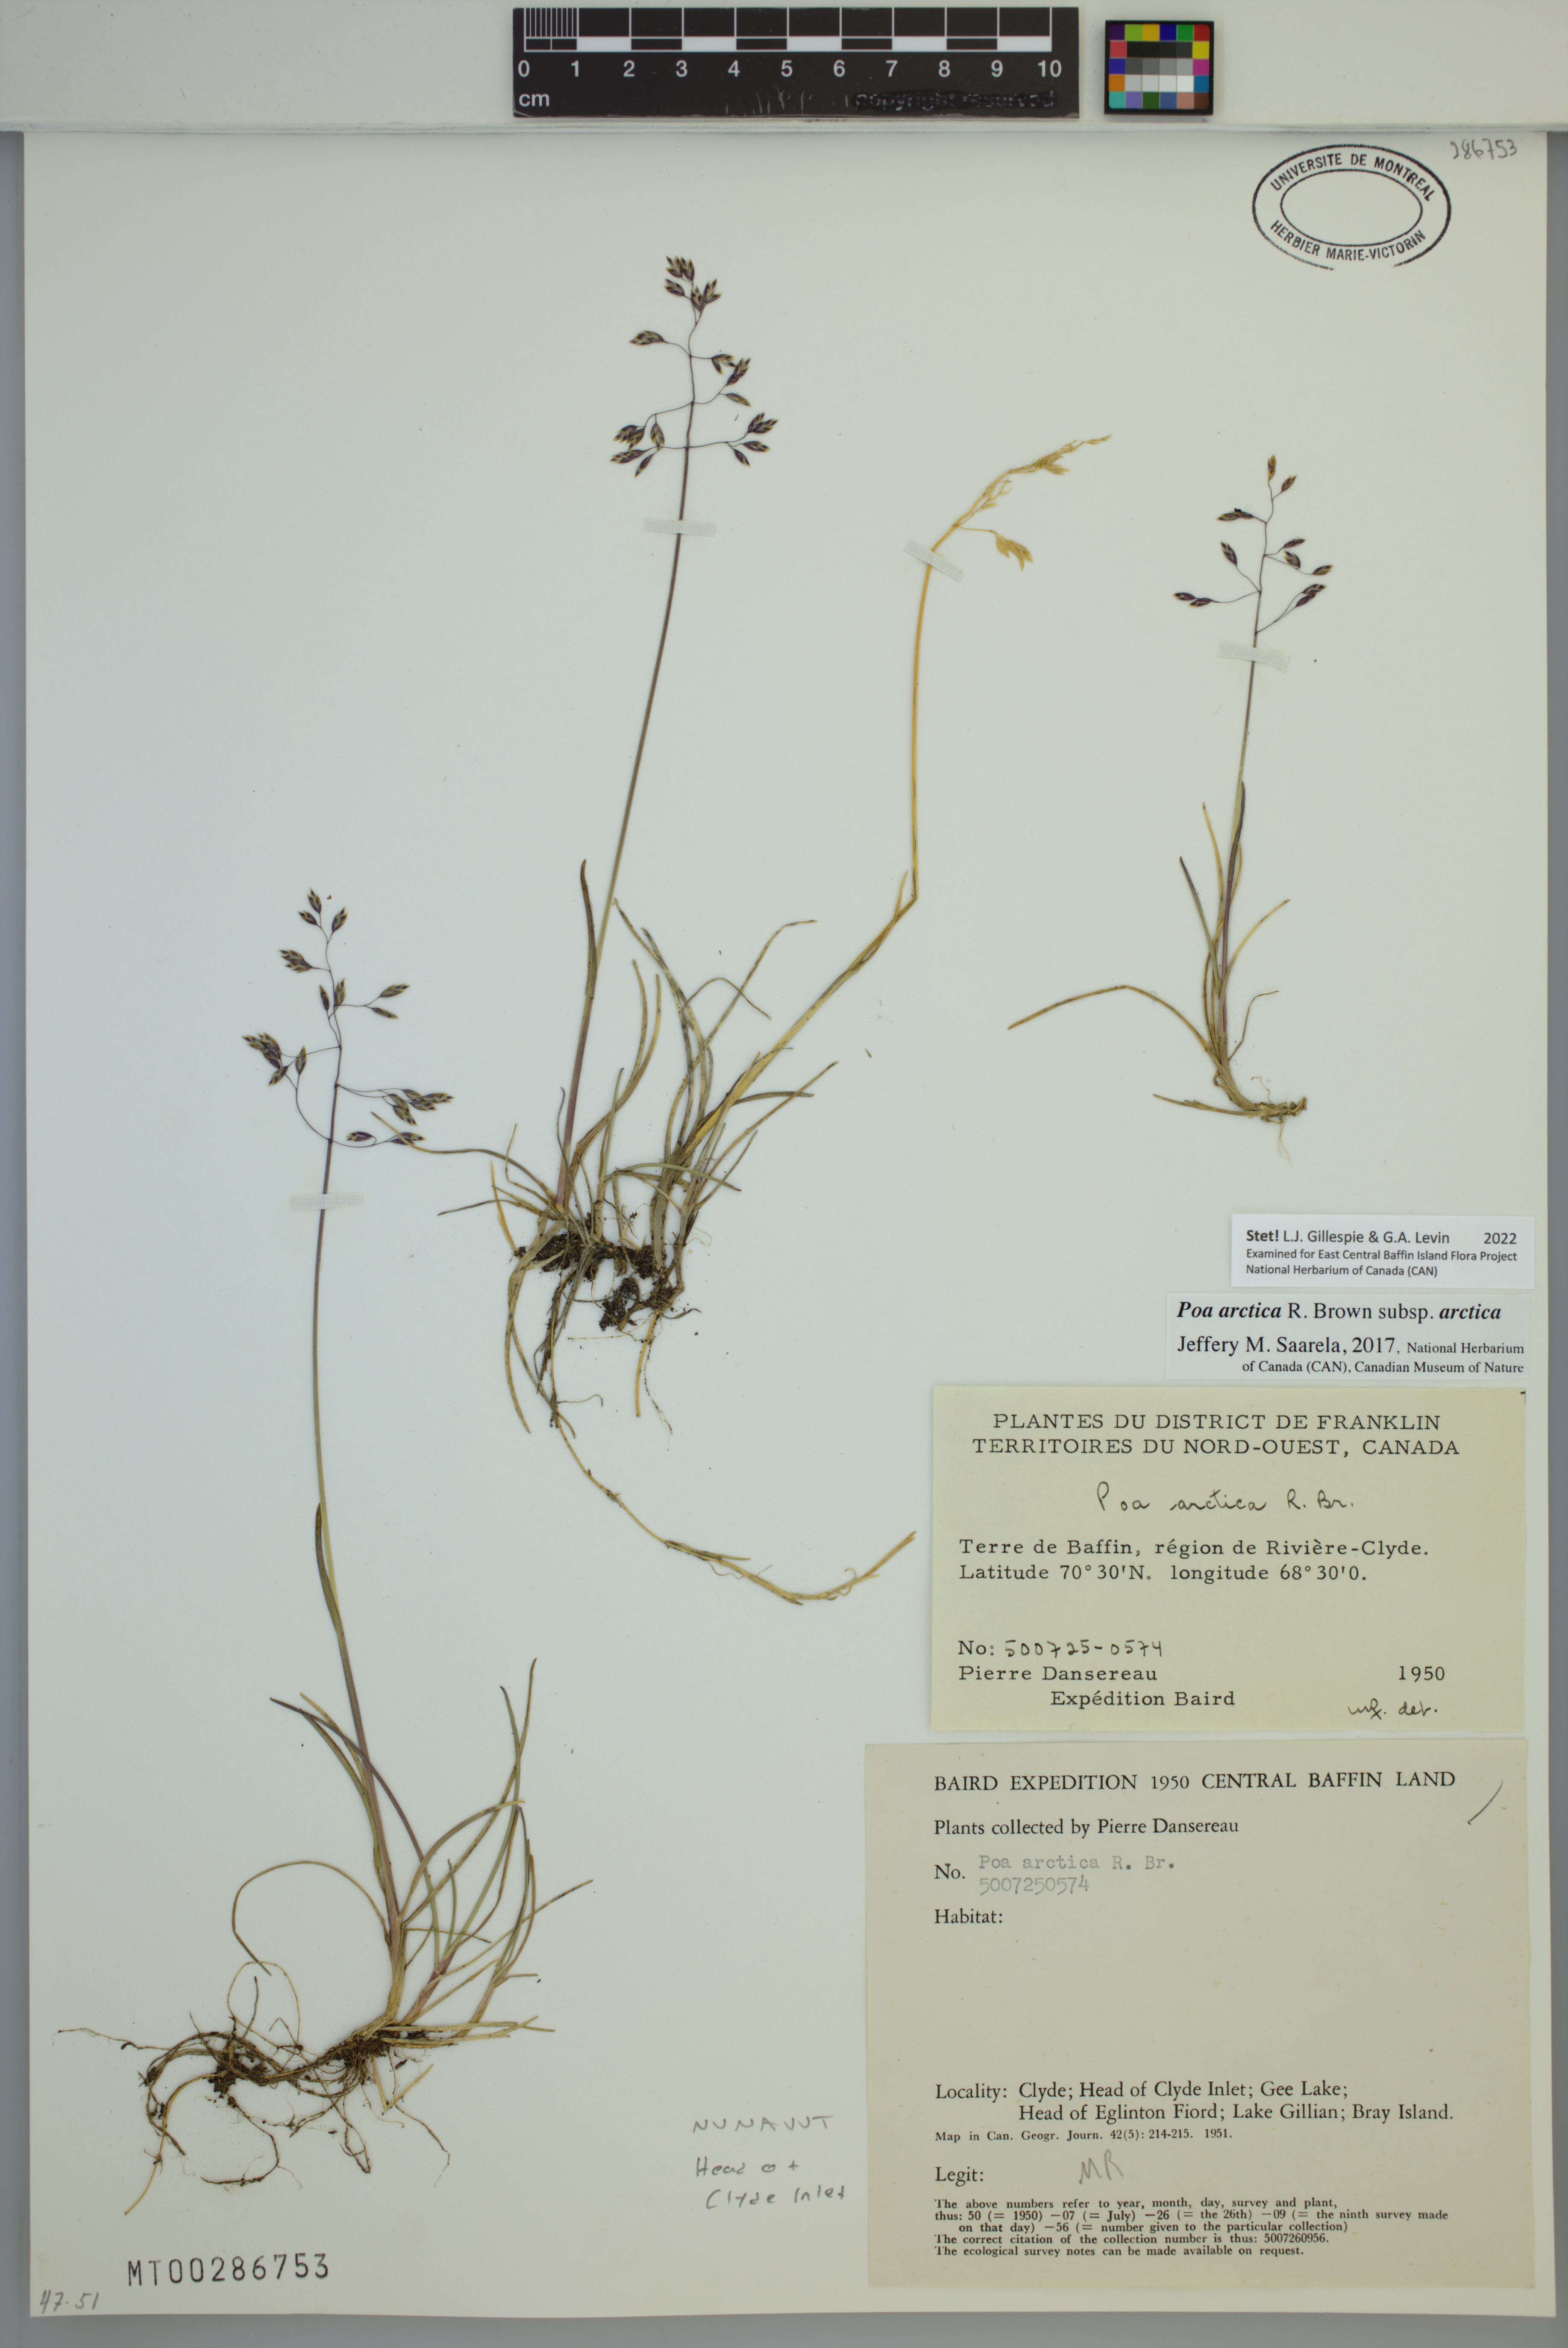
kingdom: Plantae
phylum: Tracheophyta
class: Liliopsida
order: Poales
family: Poaceae
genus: Poa
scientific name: Poa arctica
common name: Arctic bluegrass
